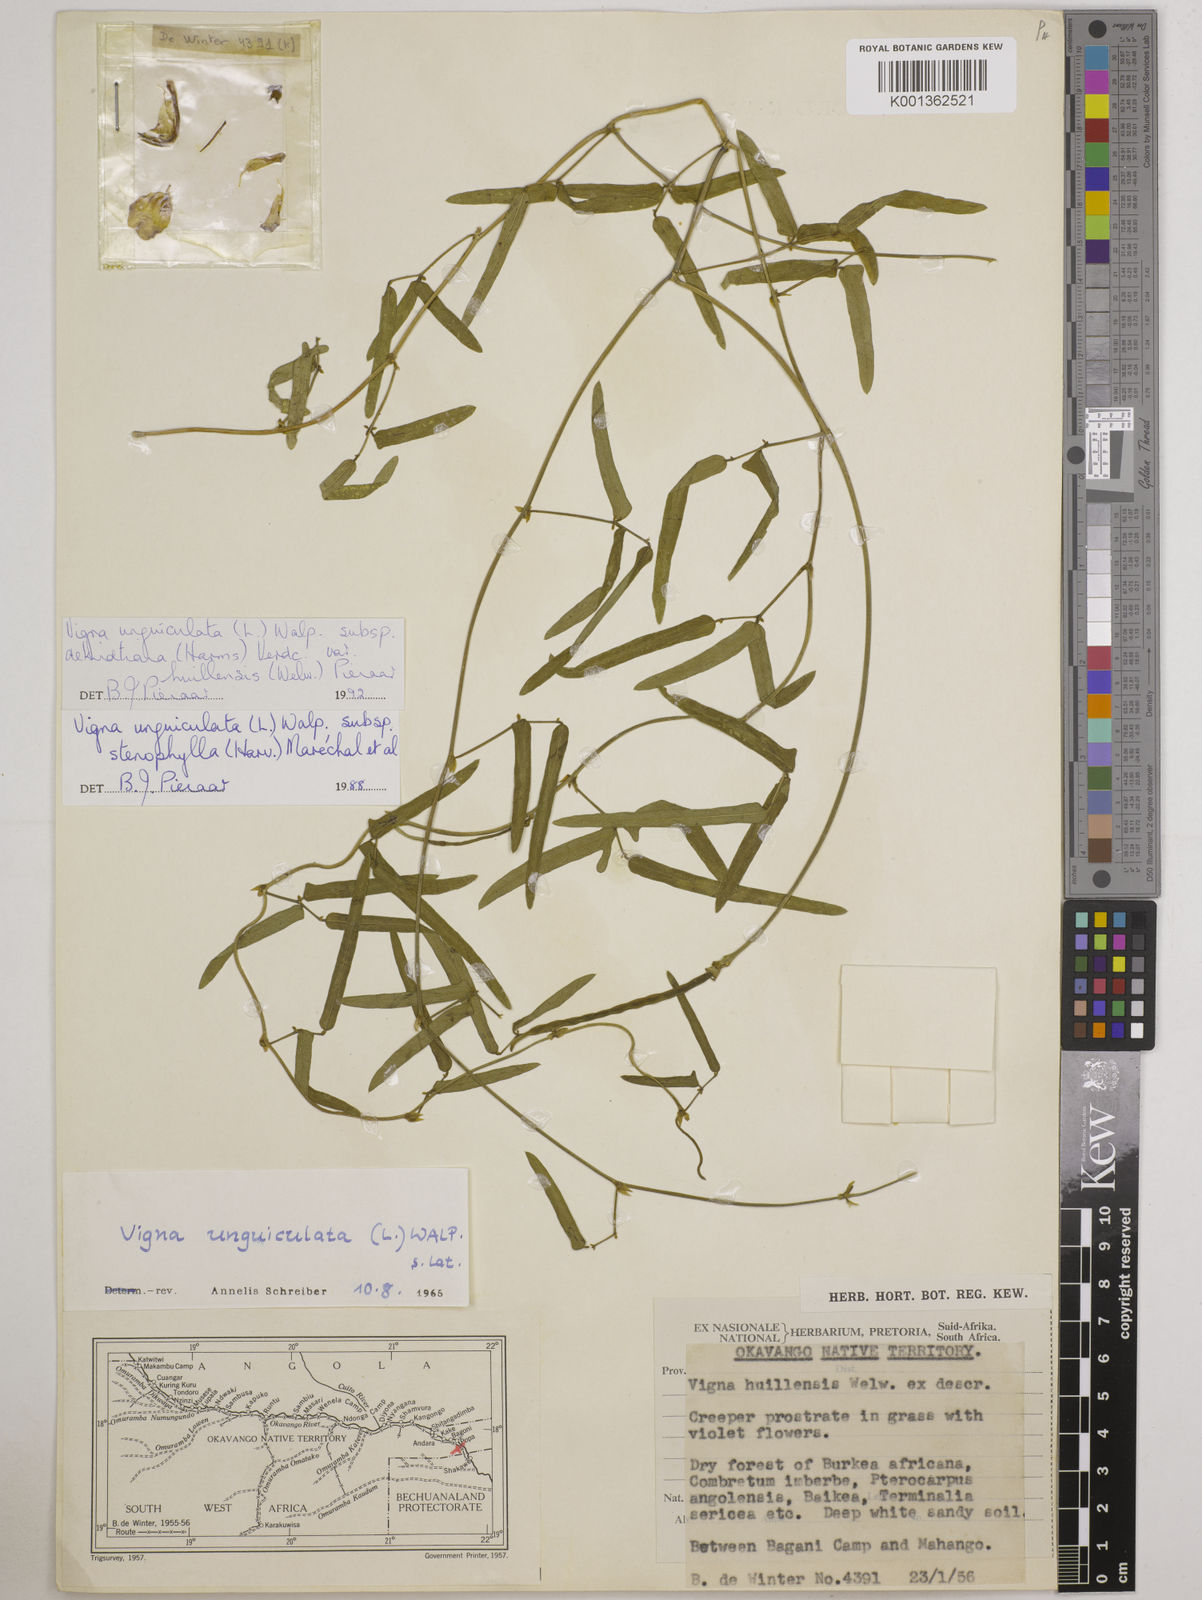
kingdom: Plantae
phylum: Tracheophyta
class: Magnoliopsida
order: Fabales
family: Fabaceae
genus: Vigna
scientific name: Vigna unguiculata
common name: Cowpea
